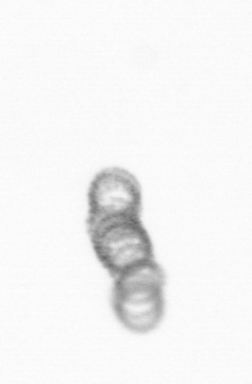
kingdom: Chromista
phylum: Ochrophyta
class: Bacillariophyceae
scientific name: Bacillariophyceae
